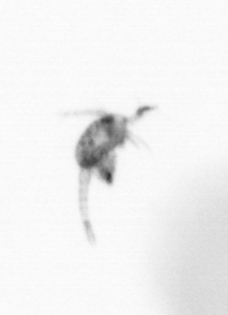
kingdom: Animalia
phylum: Arthropoda
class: Copepoda
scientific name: Copepoda
